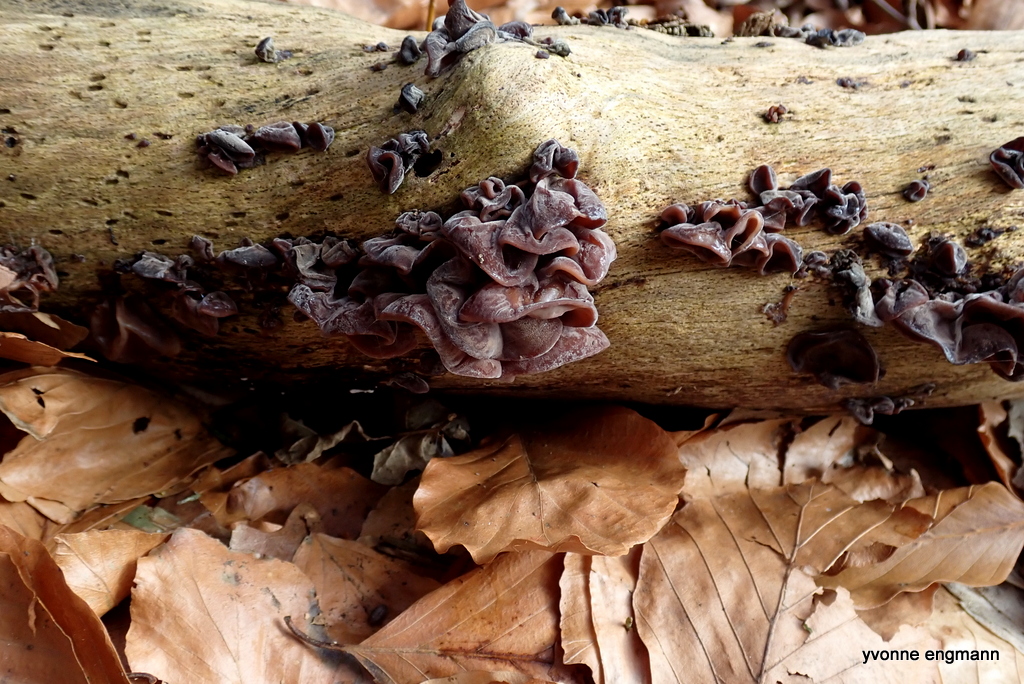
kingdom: Fungi
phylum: Basidiomycota
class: Agaricomycetes
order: Auriculariales
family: Auriculariaceae
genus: Auricularia
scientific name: Auricularia auricula-judae
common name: almindelig judasøre
